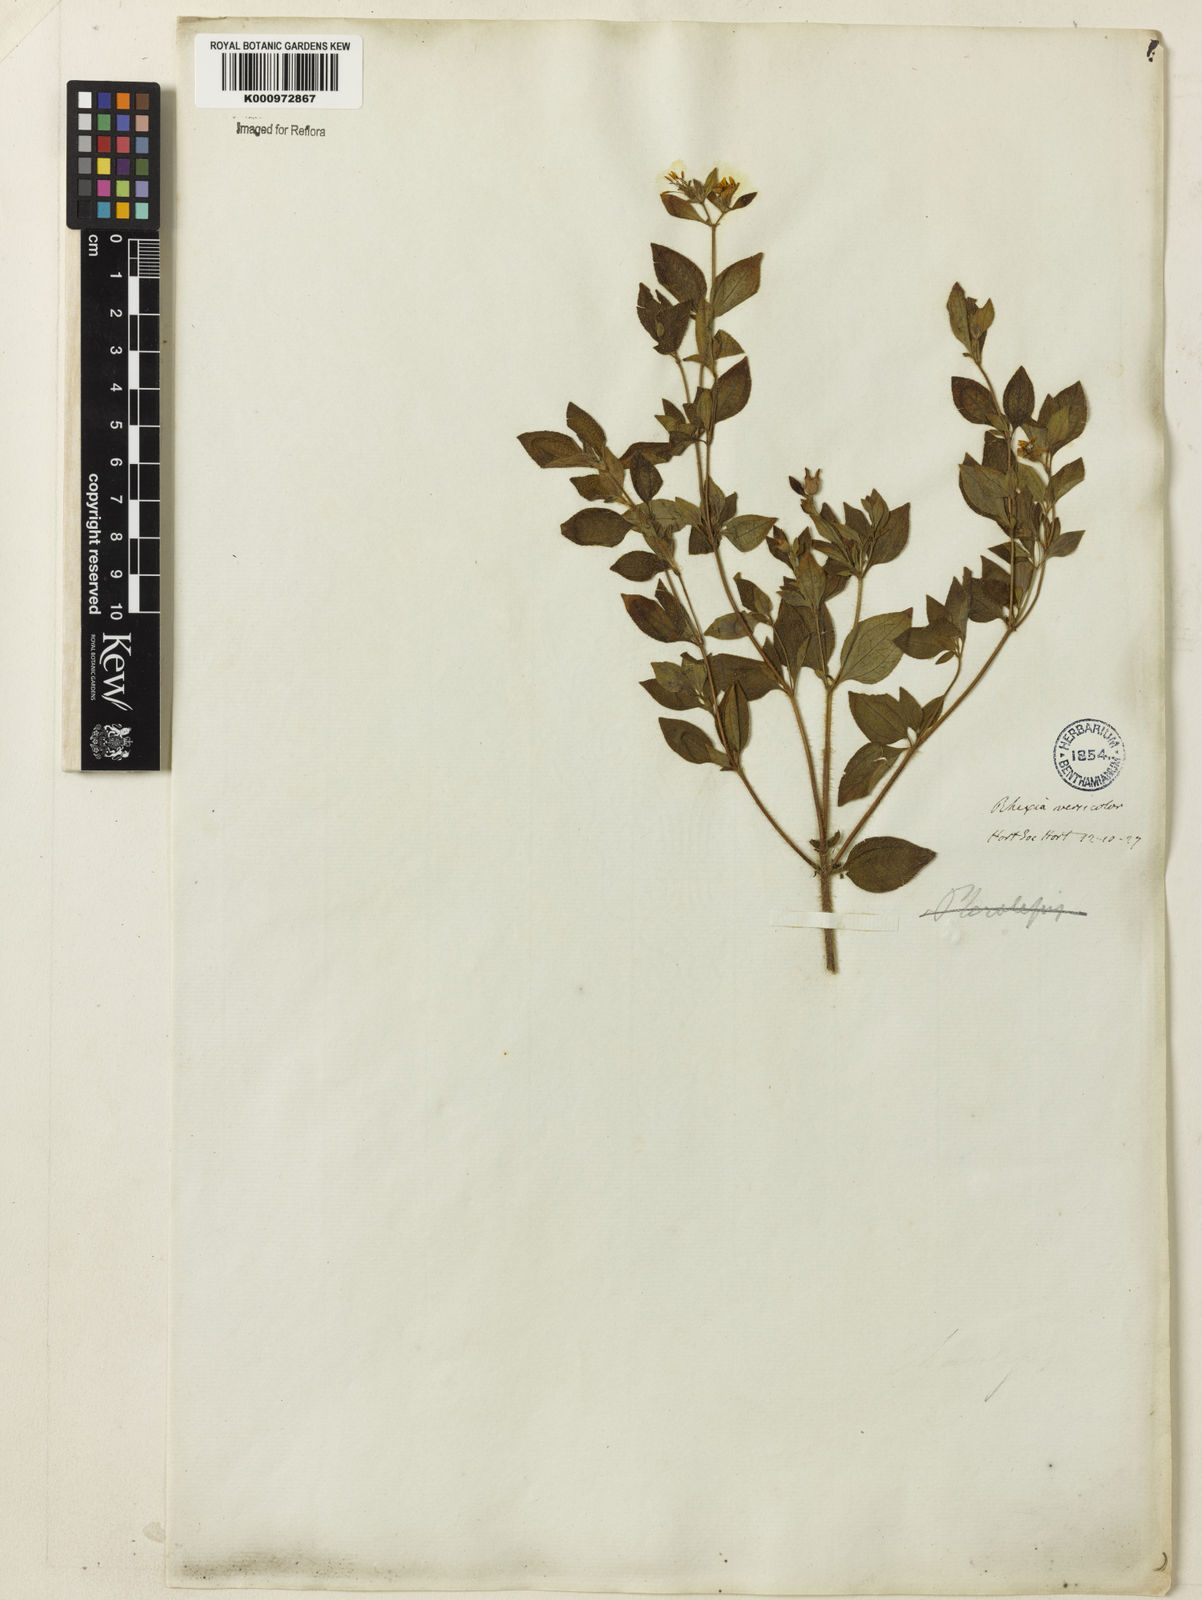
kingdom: Plantae
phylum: Tracheophyta
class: Magnoliopsida
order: Myrtales
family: Melastomataceae
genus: Chaetogastra
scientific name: Chaetogastra versicolor
